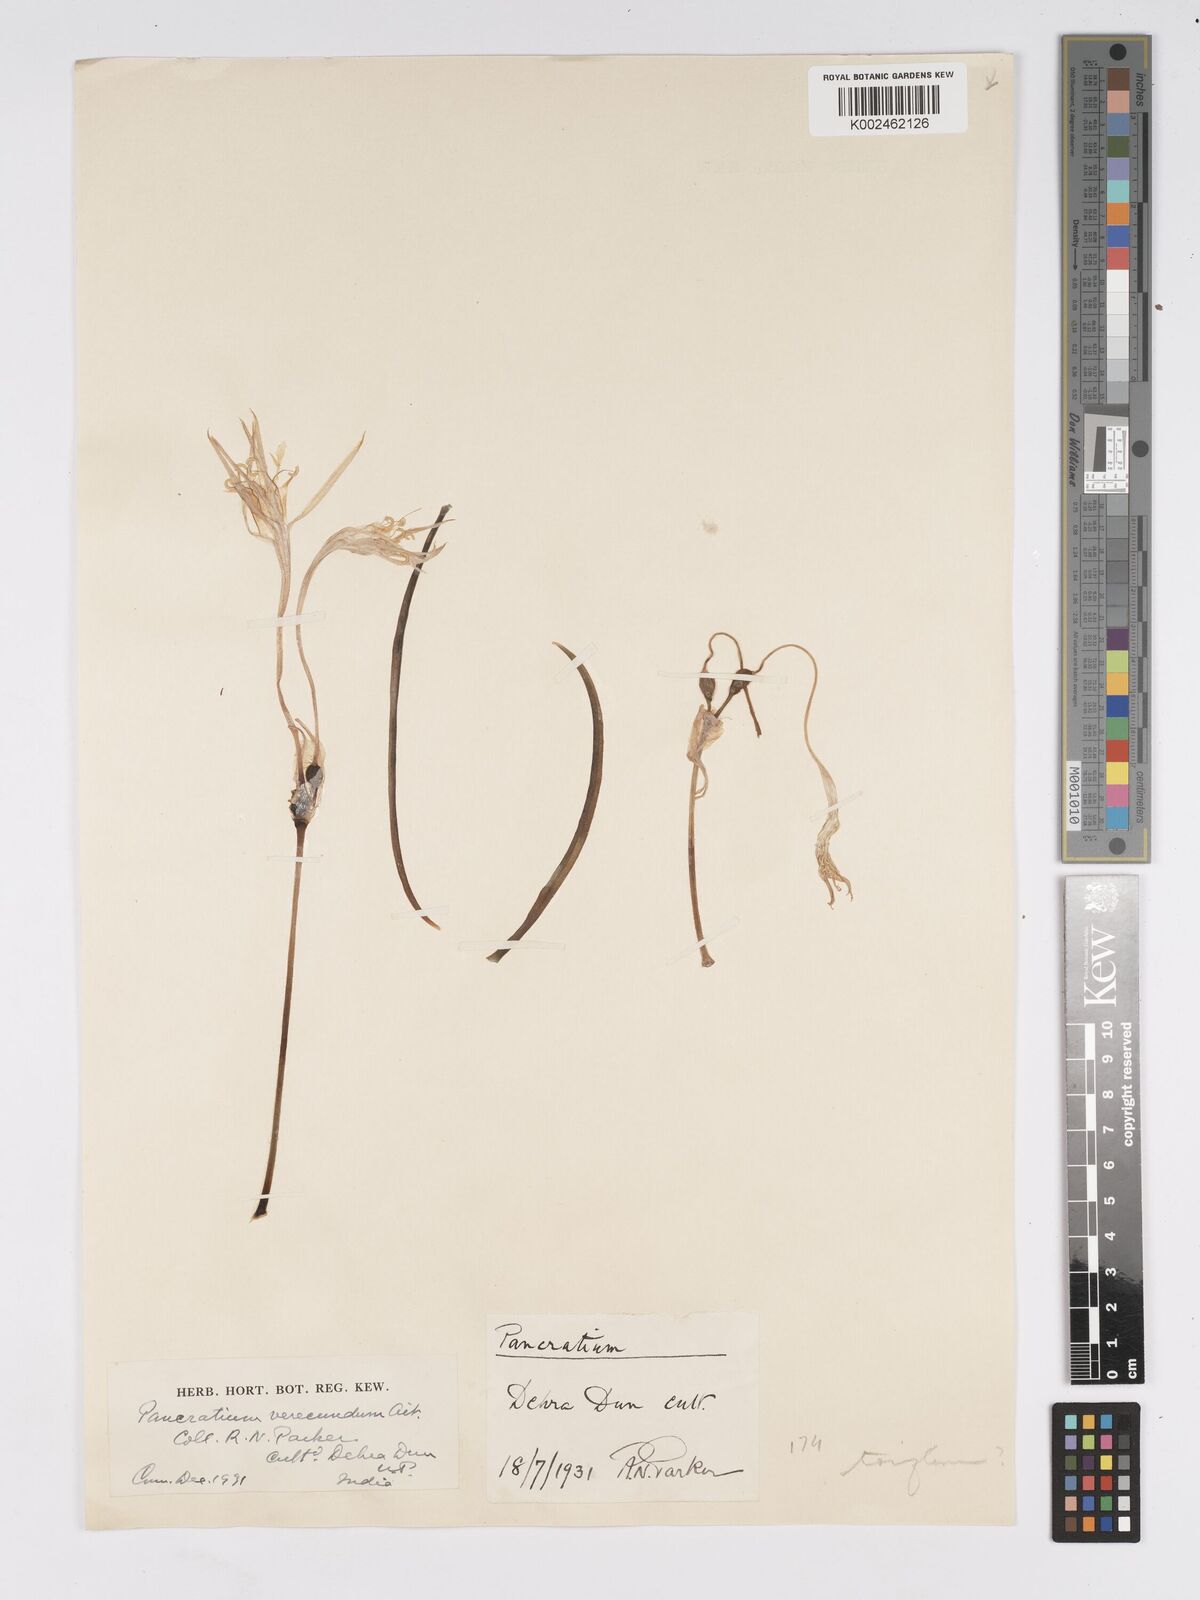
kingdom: Plantae
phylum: Tracheophyta
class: Liliopsida
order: Asparagales
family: Amaryllidaceae
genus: Pancratium
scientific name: Pancratium verecundum
